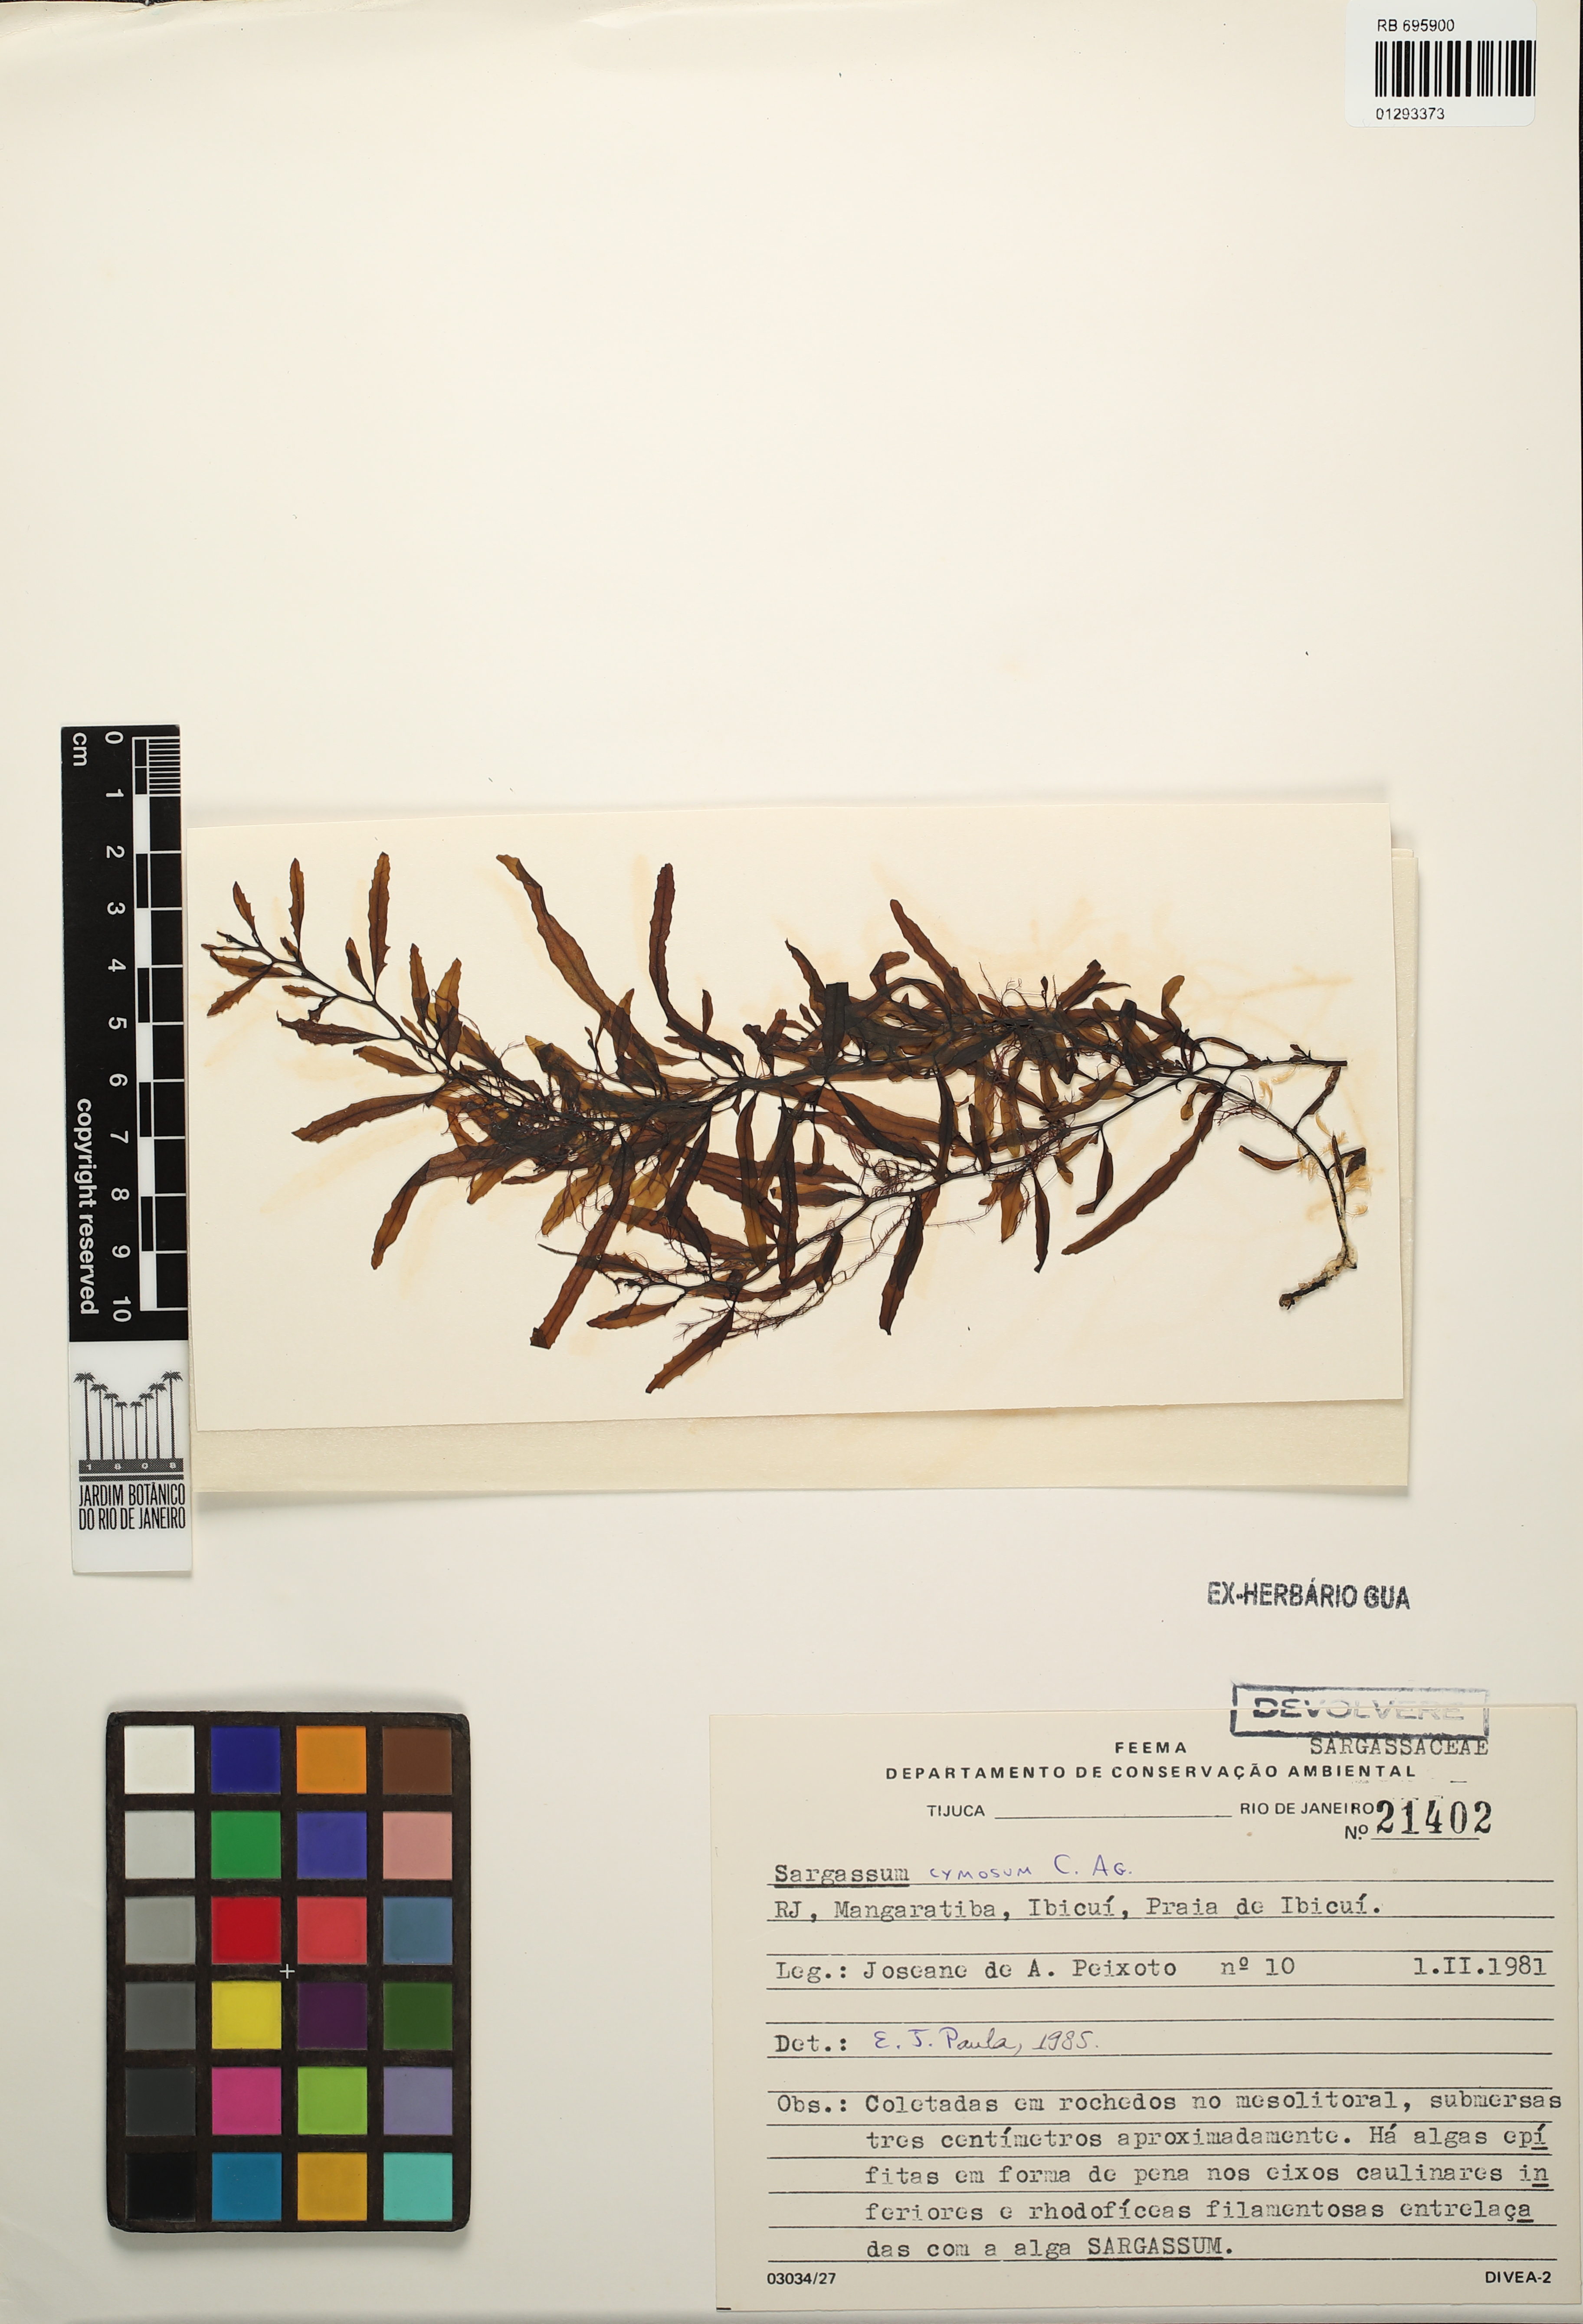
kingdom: Chromista
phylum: Ochrophyta
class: Phaeophyceae
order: Fucales
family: Sargassaceae
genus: Sargassum
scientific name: Sargassum cymosum
